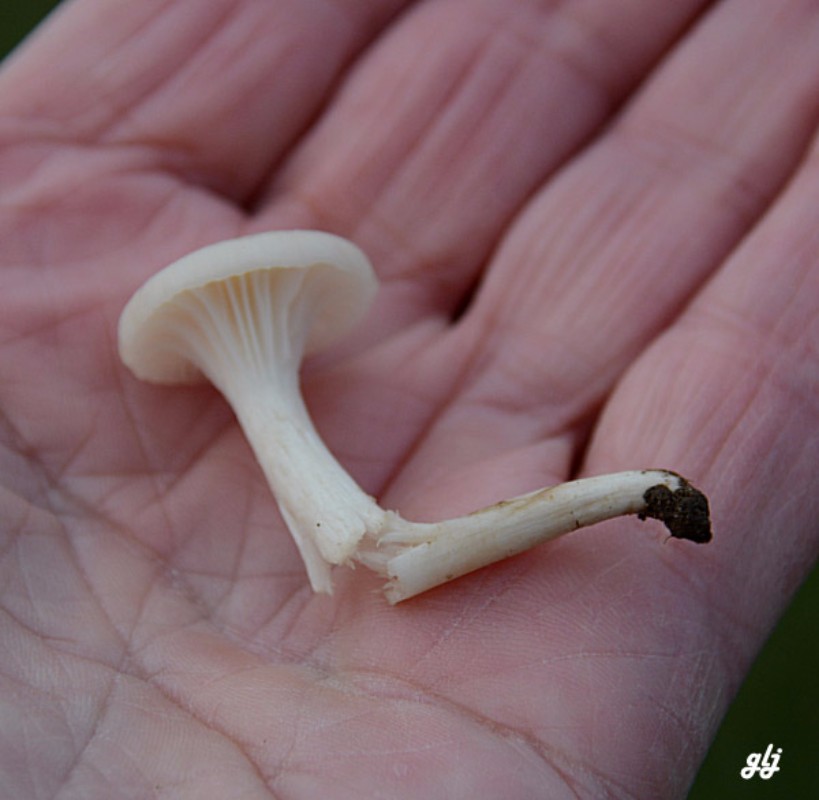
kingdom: Fungi
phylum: Basidiomycota
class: Agaricomycetes
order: Agaricales
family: Hygrophoraceae
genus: Cuphophyllus
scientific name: Cuphophyllus virgineus
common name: snehvid vokshat
